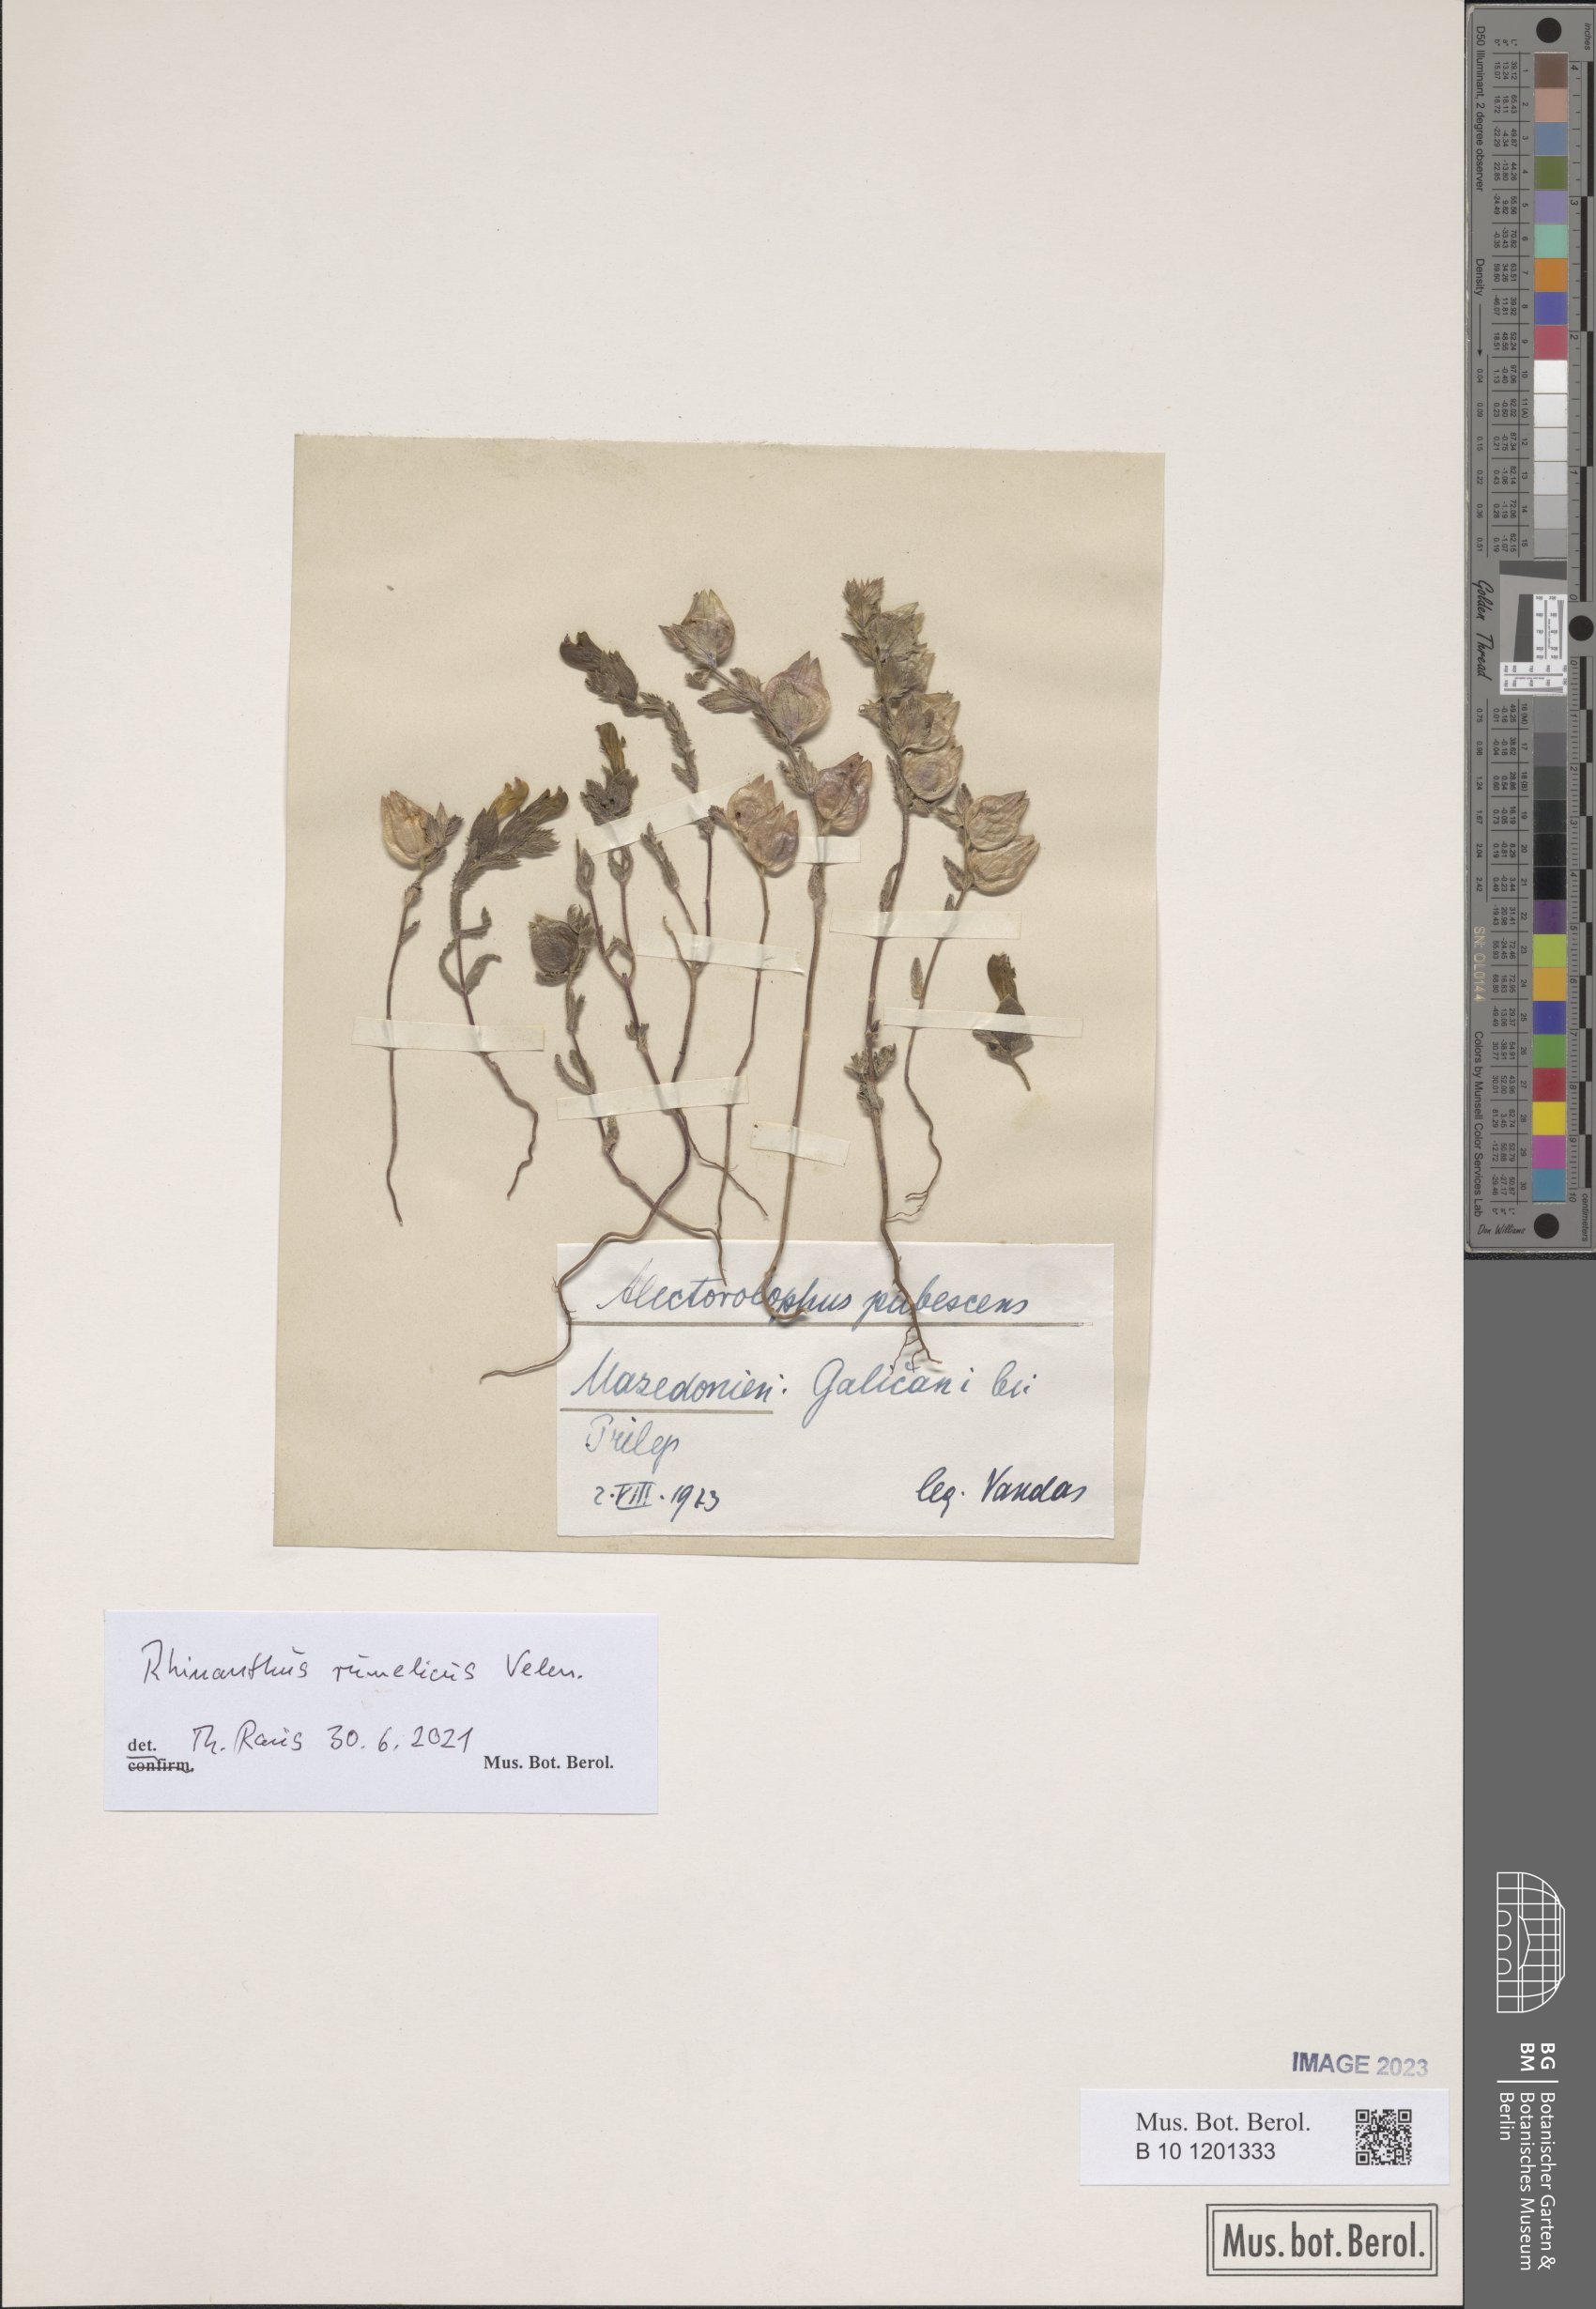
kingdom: Plantae
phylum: Tracheophyta
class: Magnoliopsida
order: Lamiales
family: Orobanchaceae
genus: Rhinanthus
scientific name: Rhinanthus rumelicus
